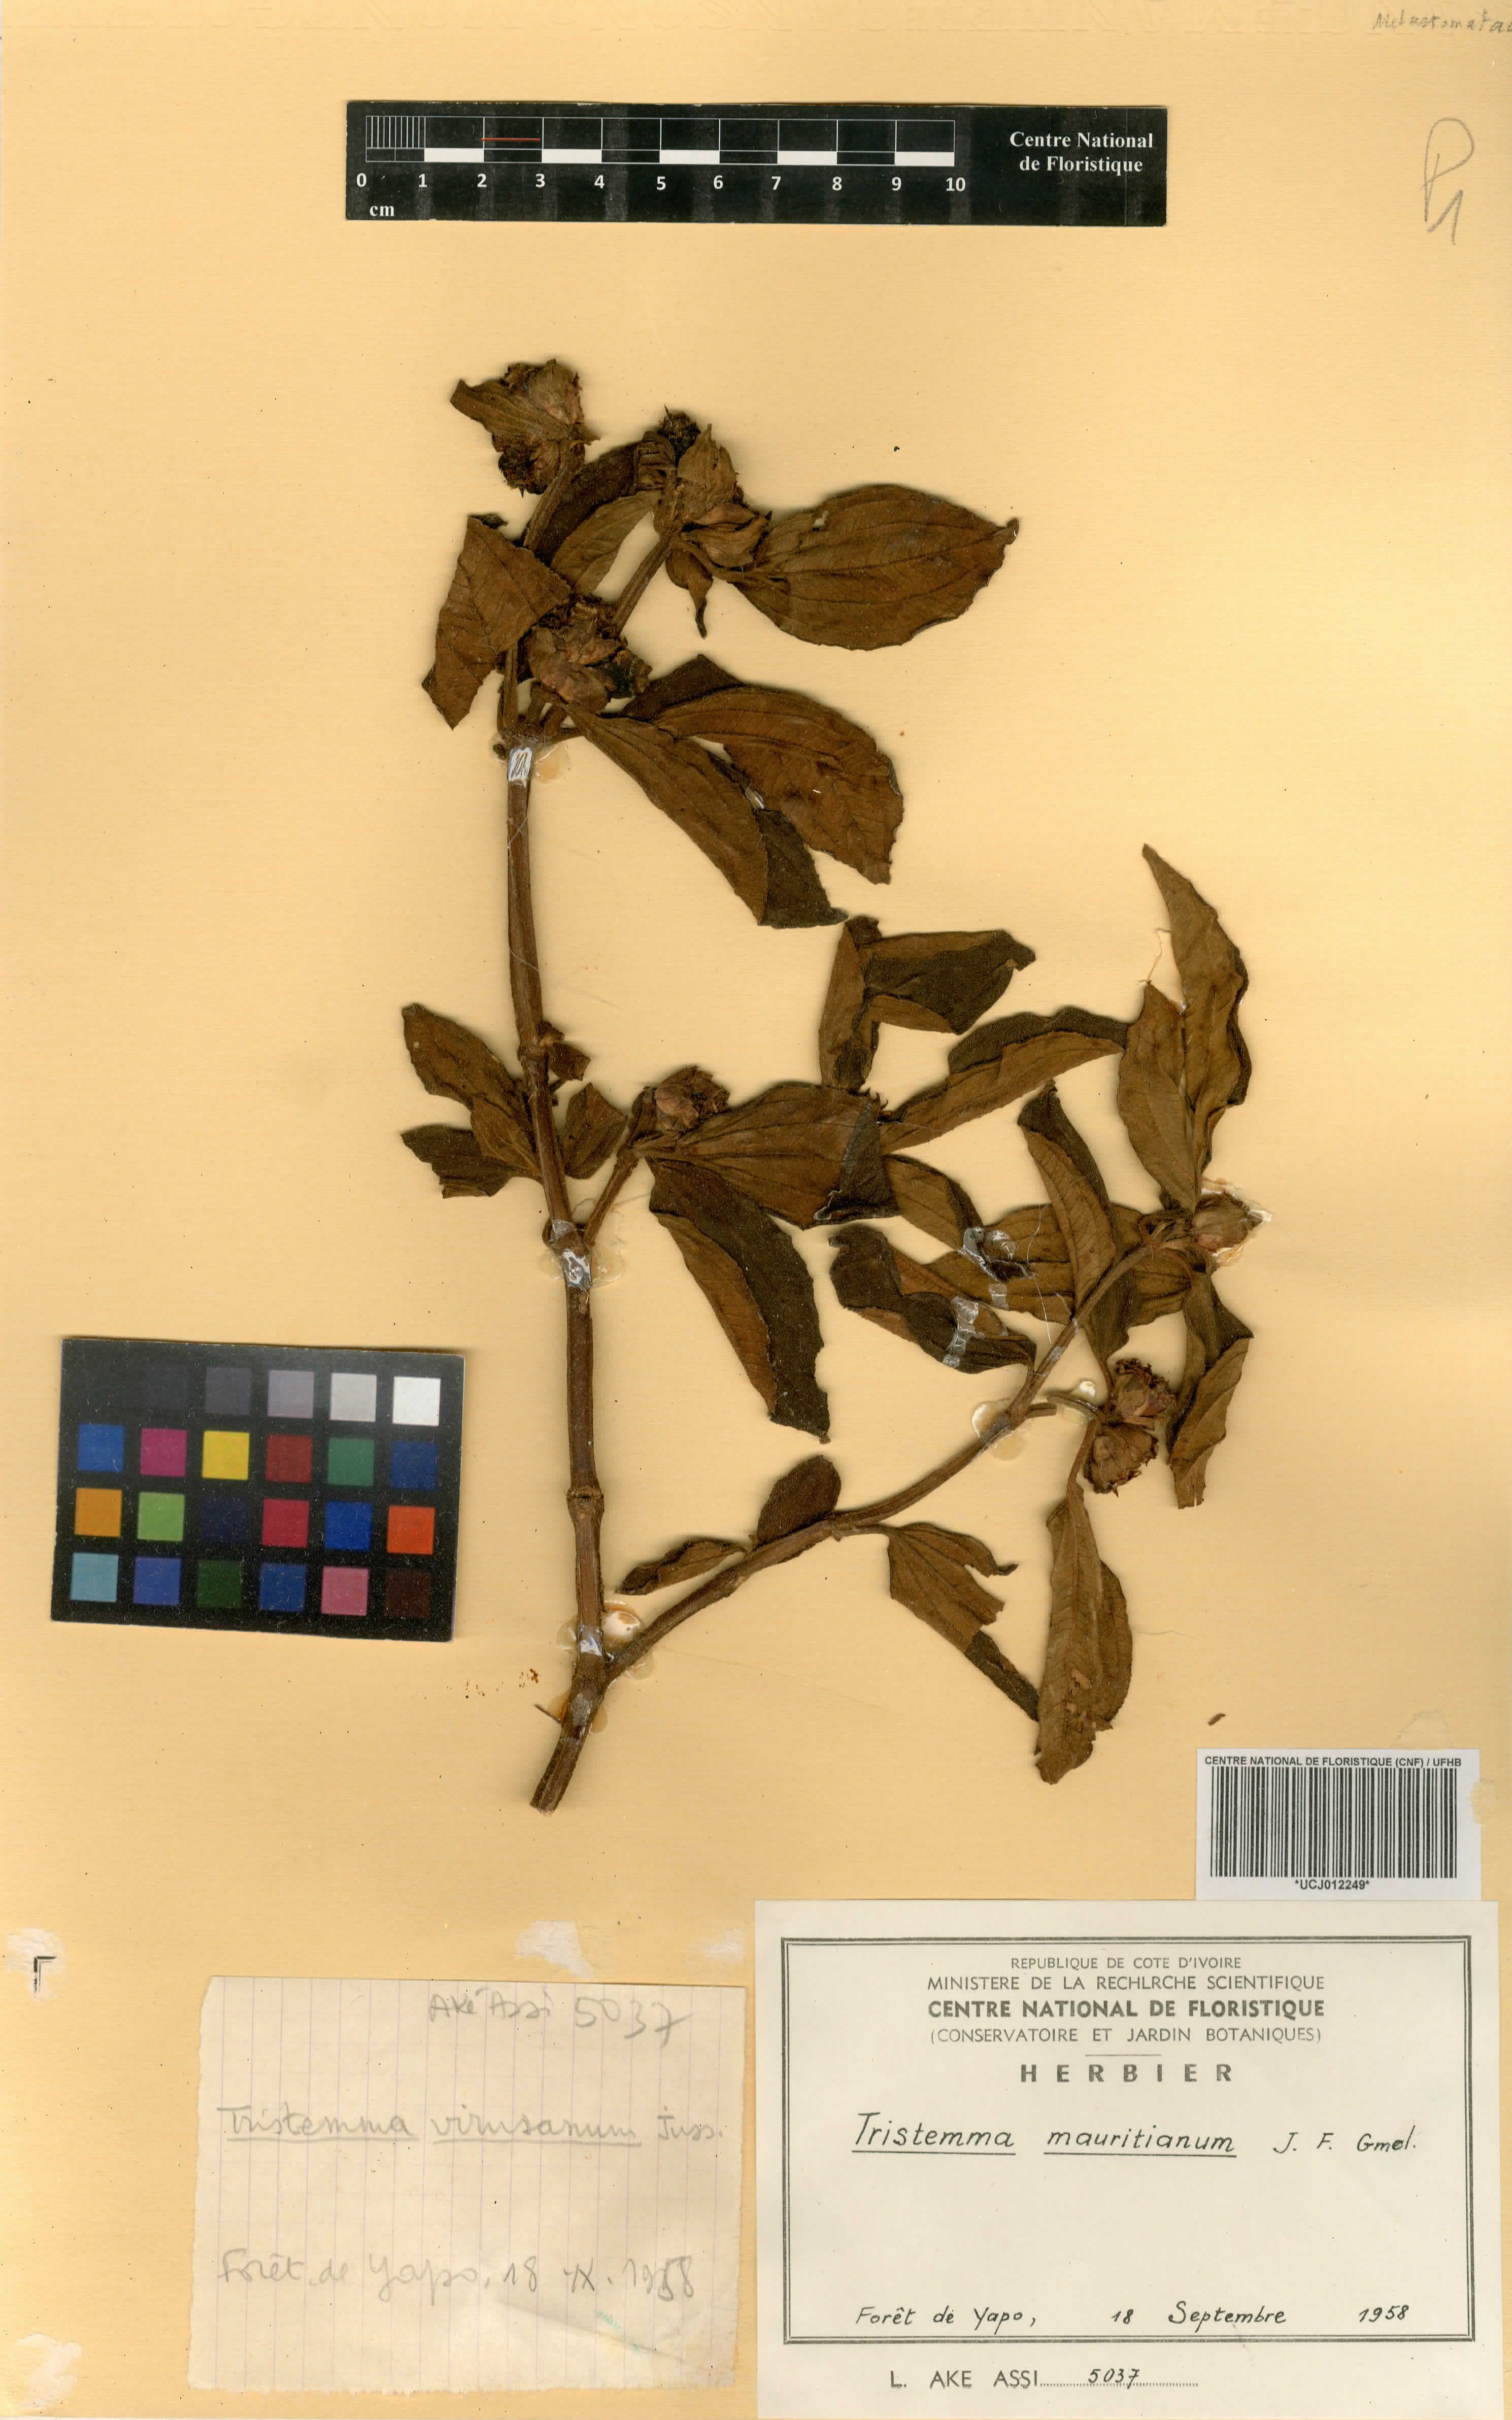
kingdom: Plantae
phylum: Tracheophyta
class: Magnoliopsida
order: Myrtales
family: Melastomataceae
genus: Tristemma
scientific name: Tristemma mauritianum
